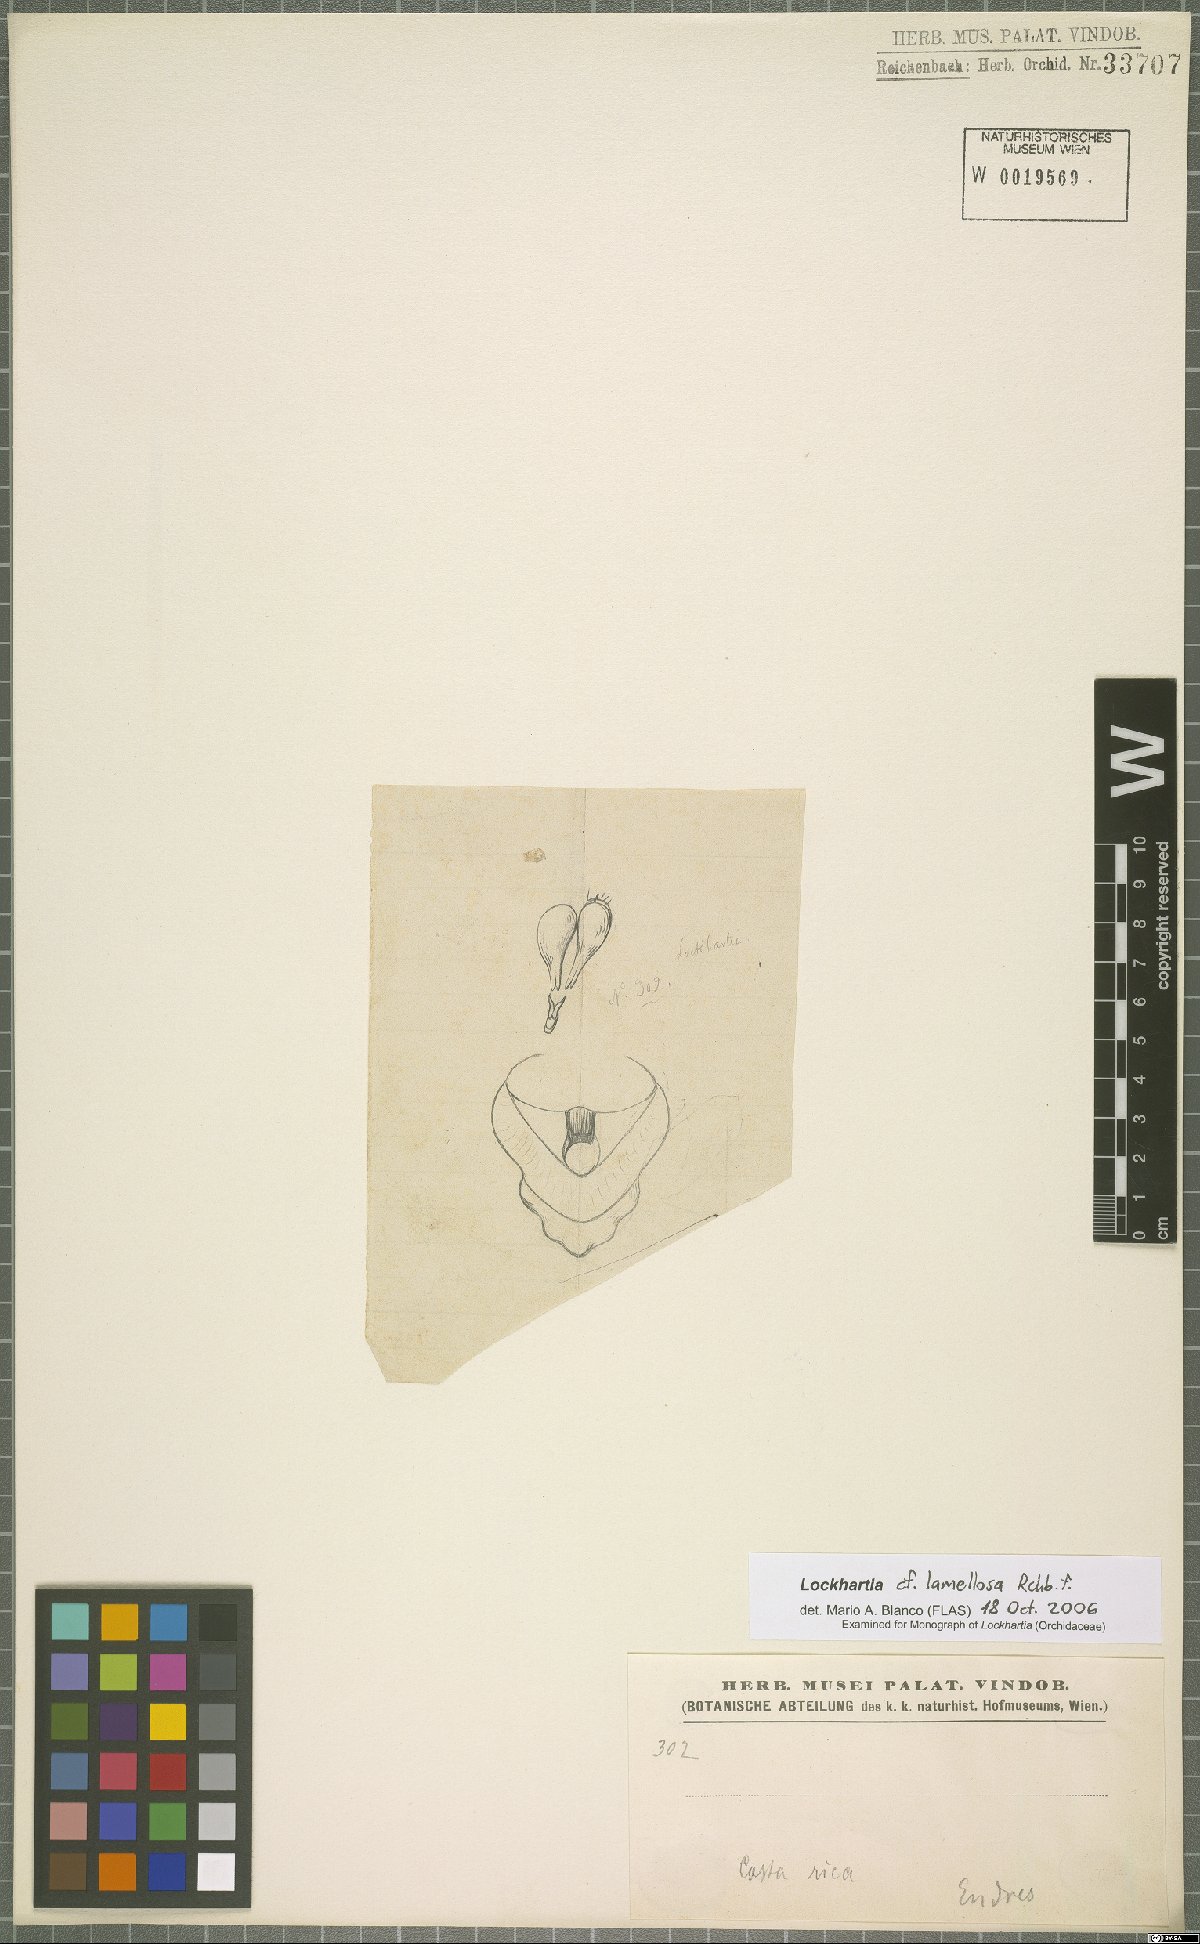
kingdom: Plantae
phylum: Tracheophyta
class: Liliopsida
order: Asparagales
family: Orchidaceae
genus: Lockhartia
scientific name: Lockhartia oerstedii
